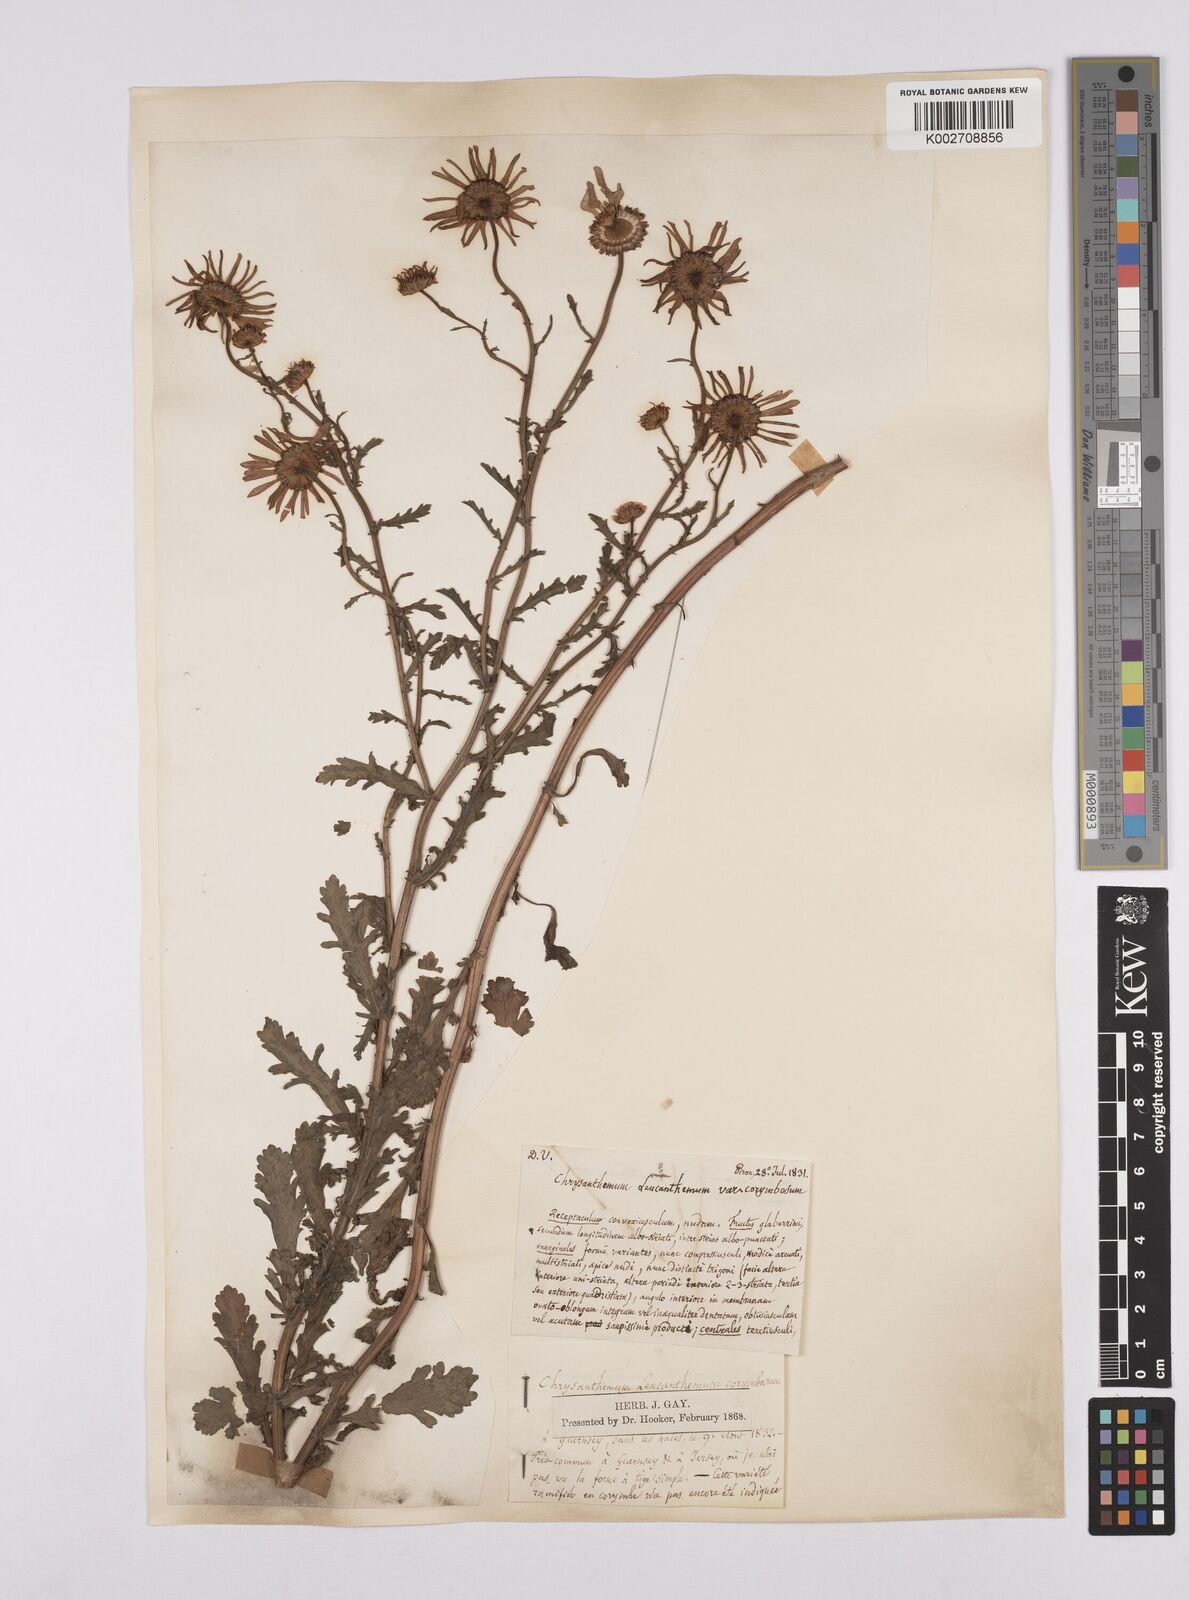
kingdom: Plantae
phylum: Tracheophyta
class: Magnoliopsida
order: Asterales
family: Asteraceae
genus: Leucanthemum
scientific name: Leucanthemum
